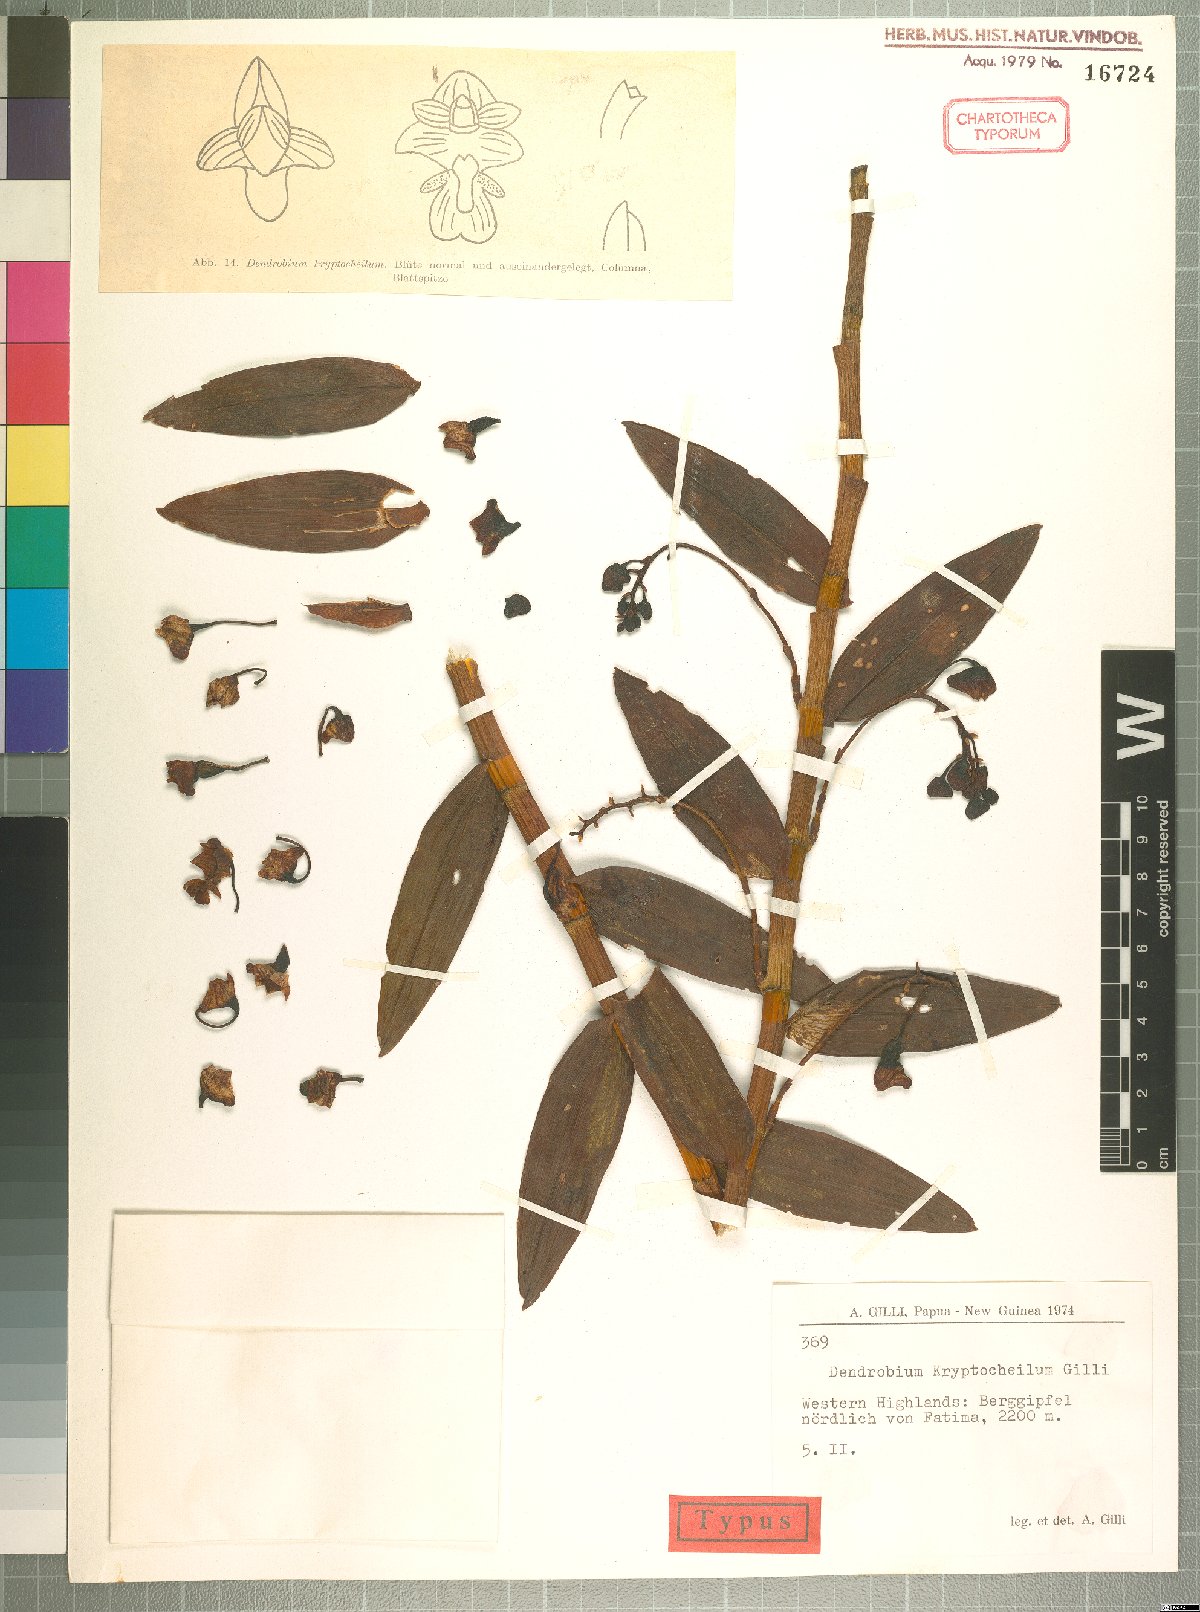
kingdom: Plantae
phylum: Tracheophyta
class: Liliopsida
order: Asparagales
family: Orchidaceae
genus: Dendrobium
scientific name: Dendrobium prostheciglossum
